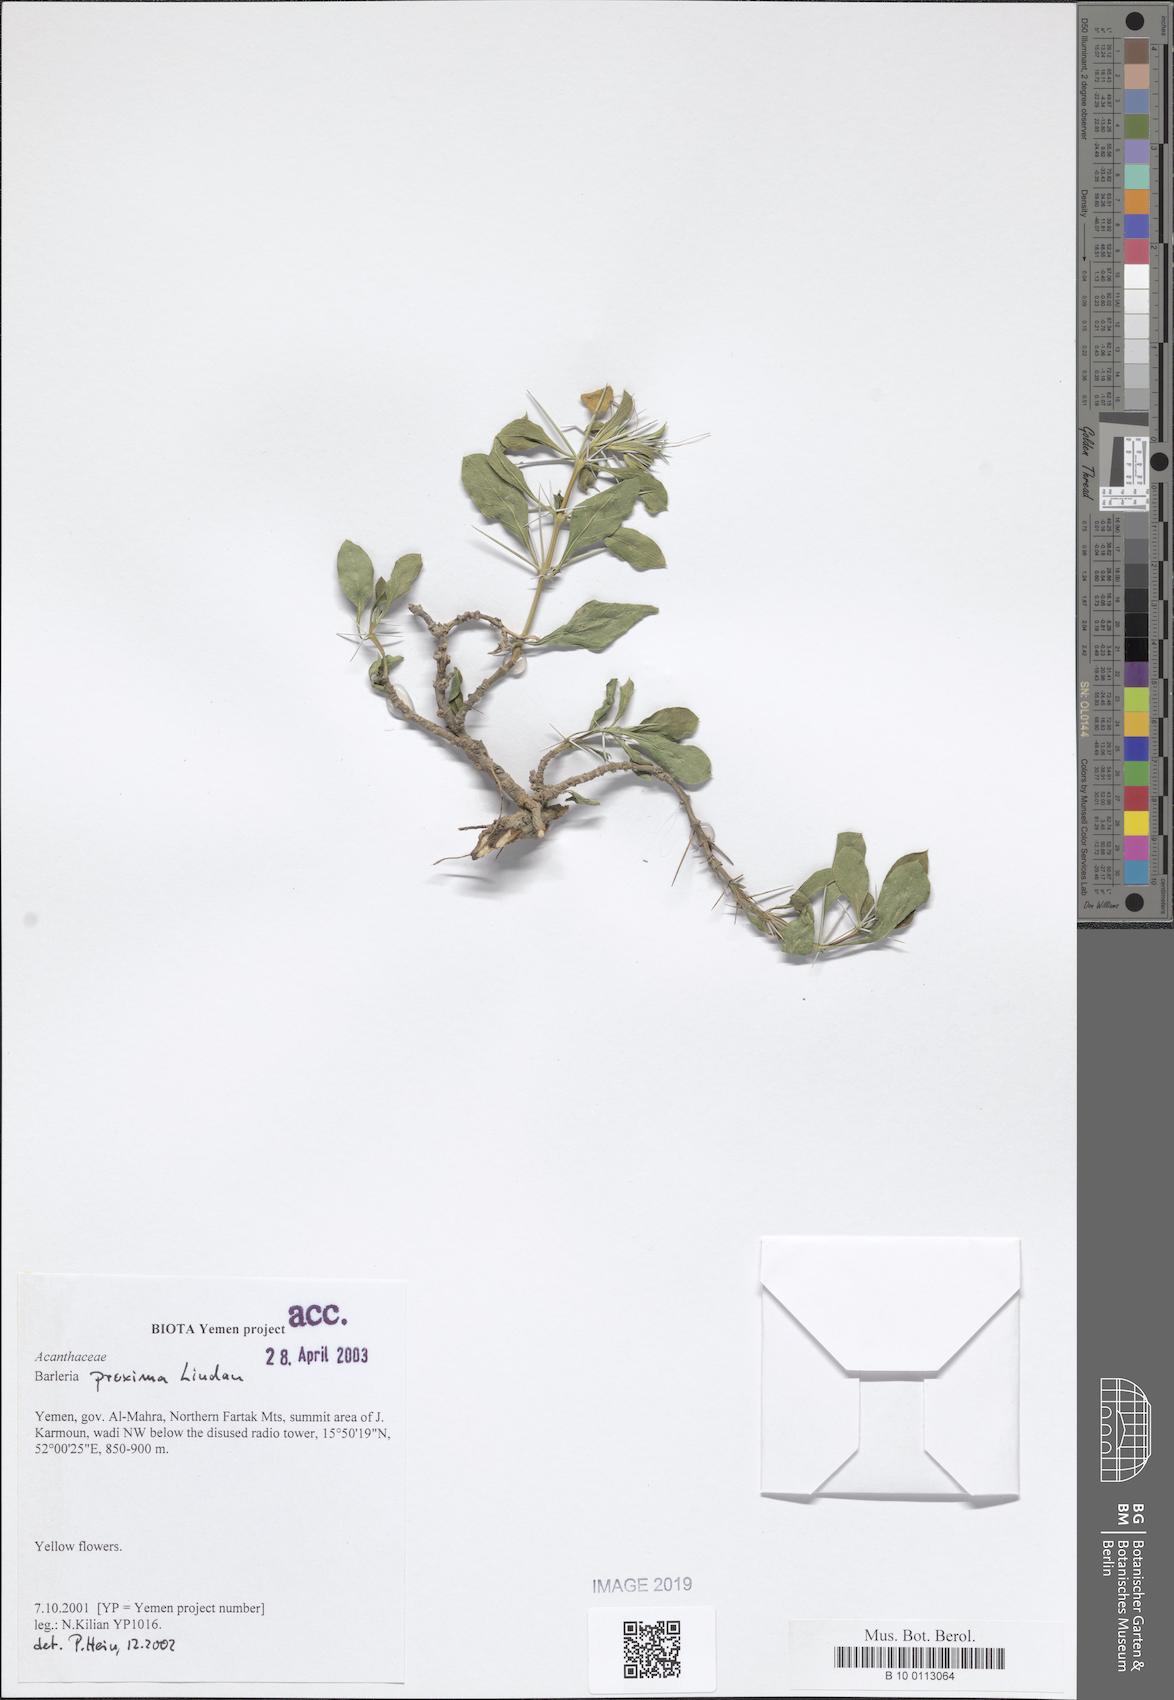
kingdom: Plantae
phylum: Tracheophyta
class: Magnoliopsida
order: Lamiales
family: Acanthaceae
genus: Barleria
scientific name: Barleria proxima
